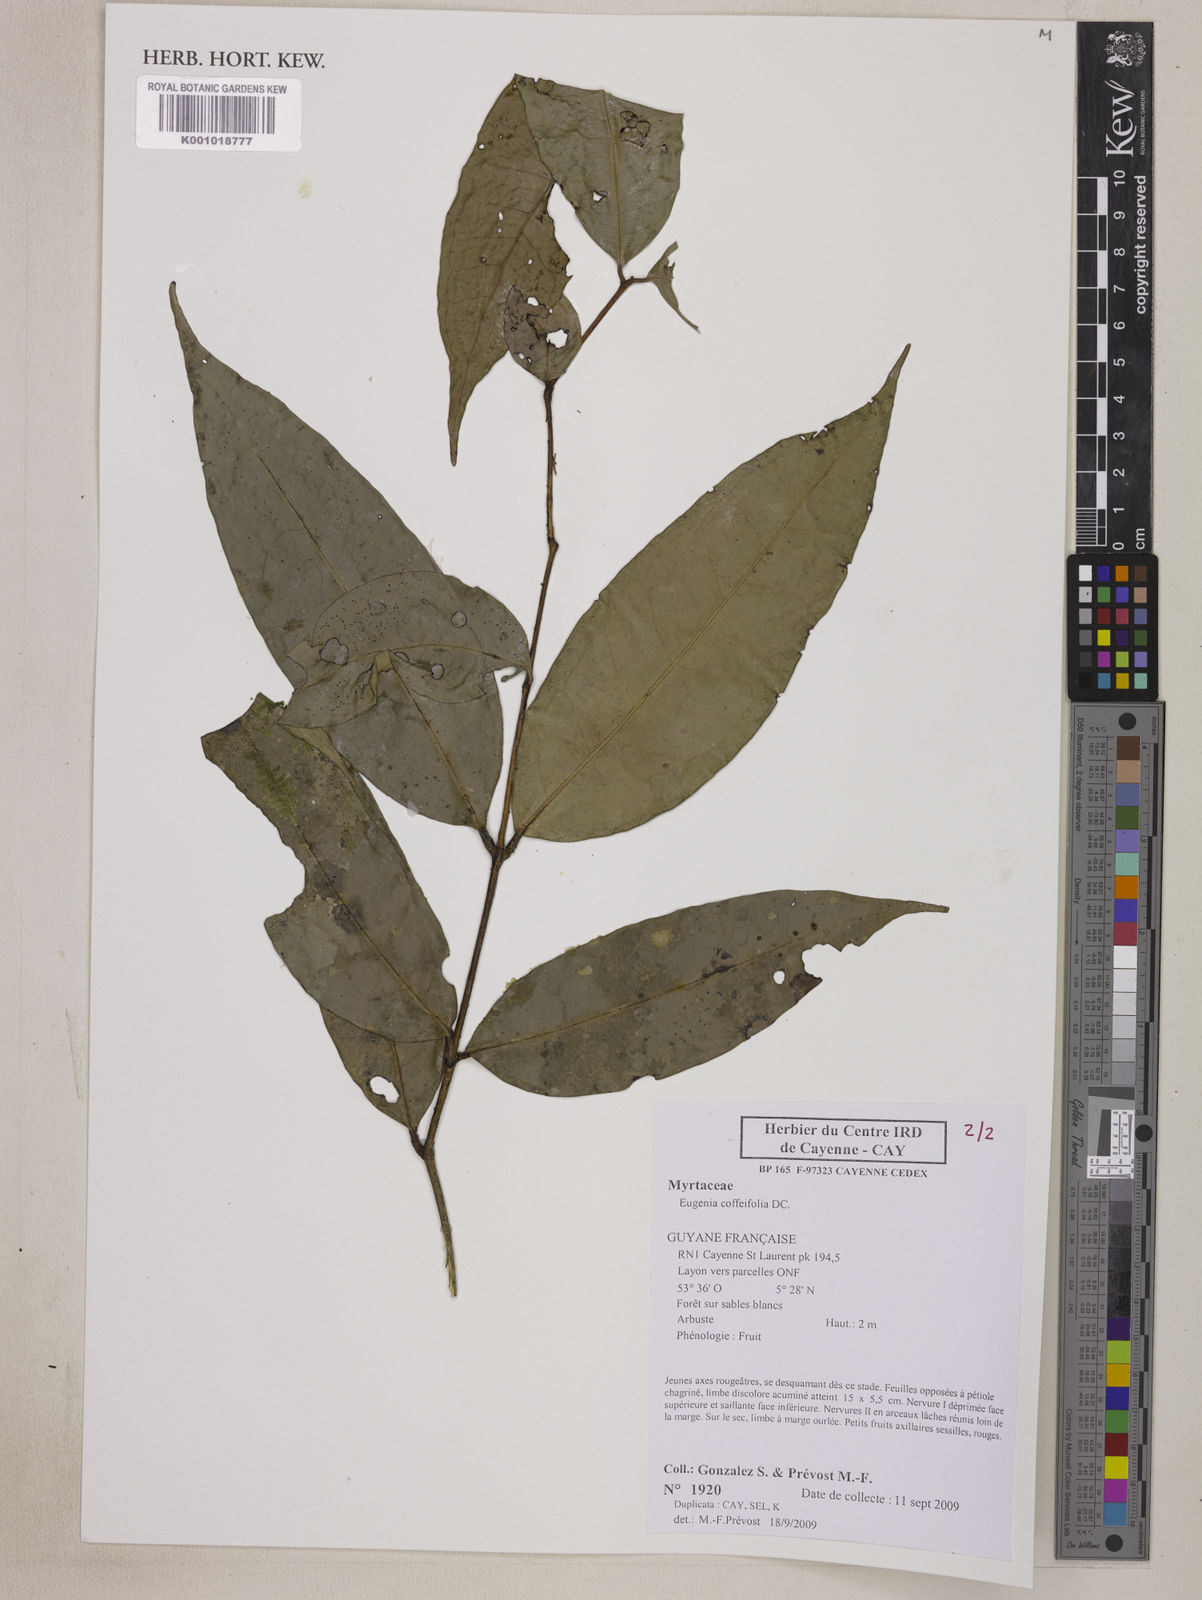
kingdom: Plantae
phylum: Tracheophyta
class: Magnoliopsida
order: Myrtales
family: Myrtaceae
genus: Eugenia
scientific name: Eugenia coffeifolia
